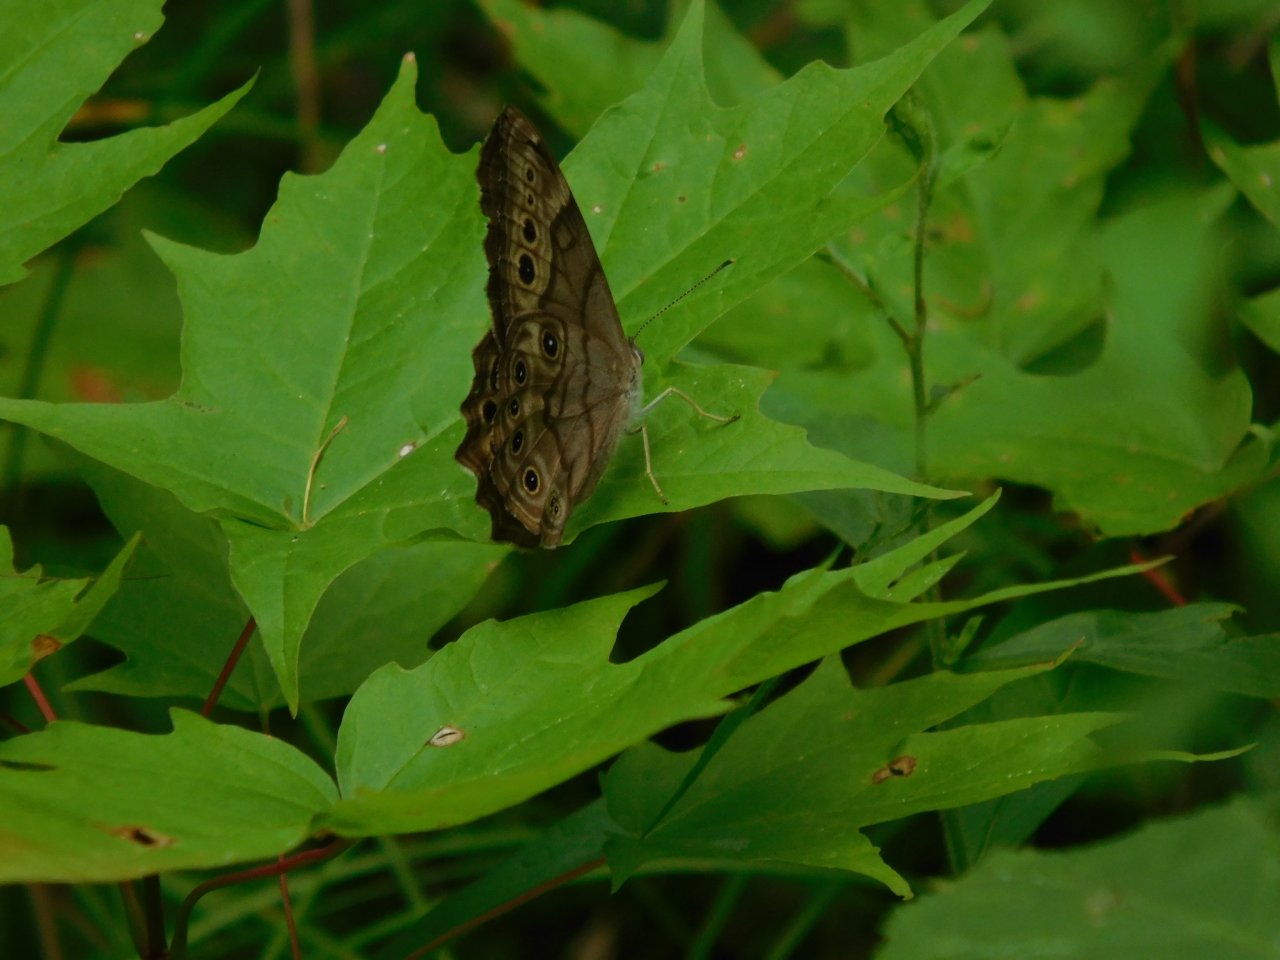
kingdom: Animalia
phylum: Arthropoda
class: Insecta
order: Lepidoptera
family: Nymphalidae
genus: Lethe
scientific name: Lethe anthedon
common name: Northern Pearly-Eye
